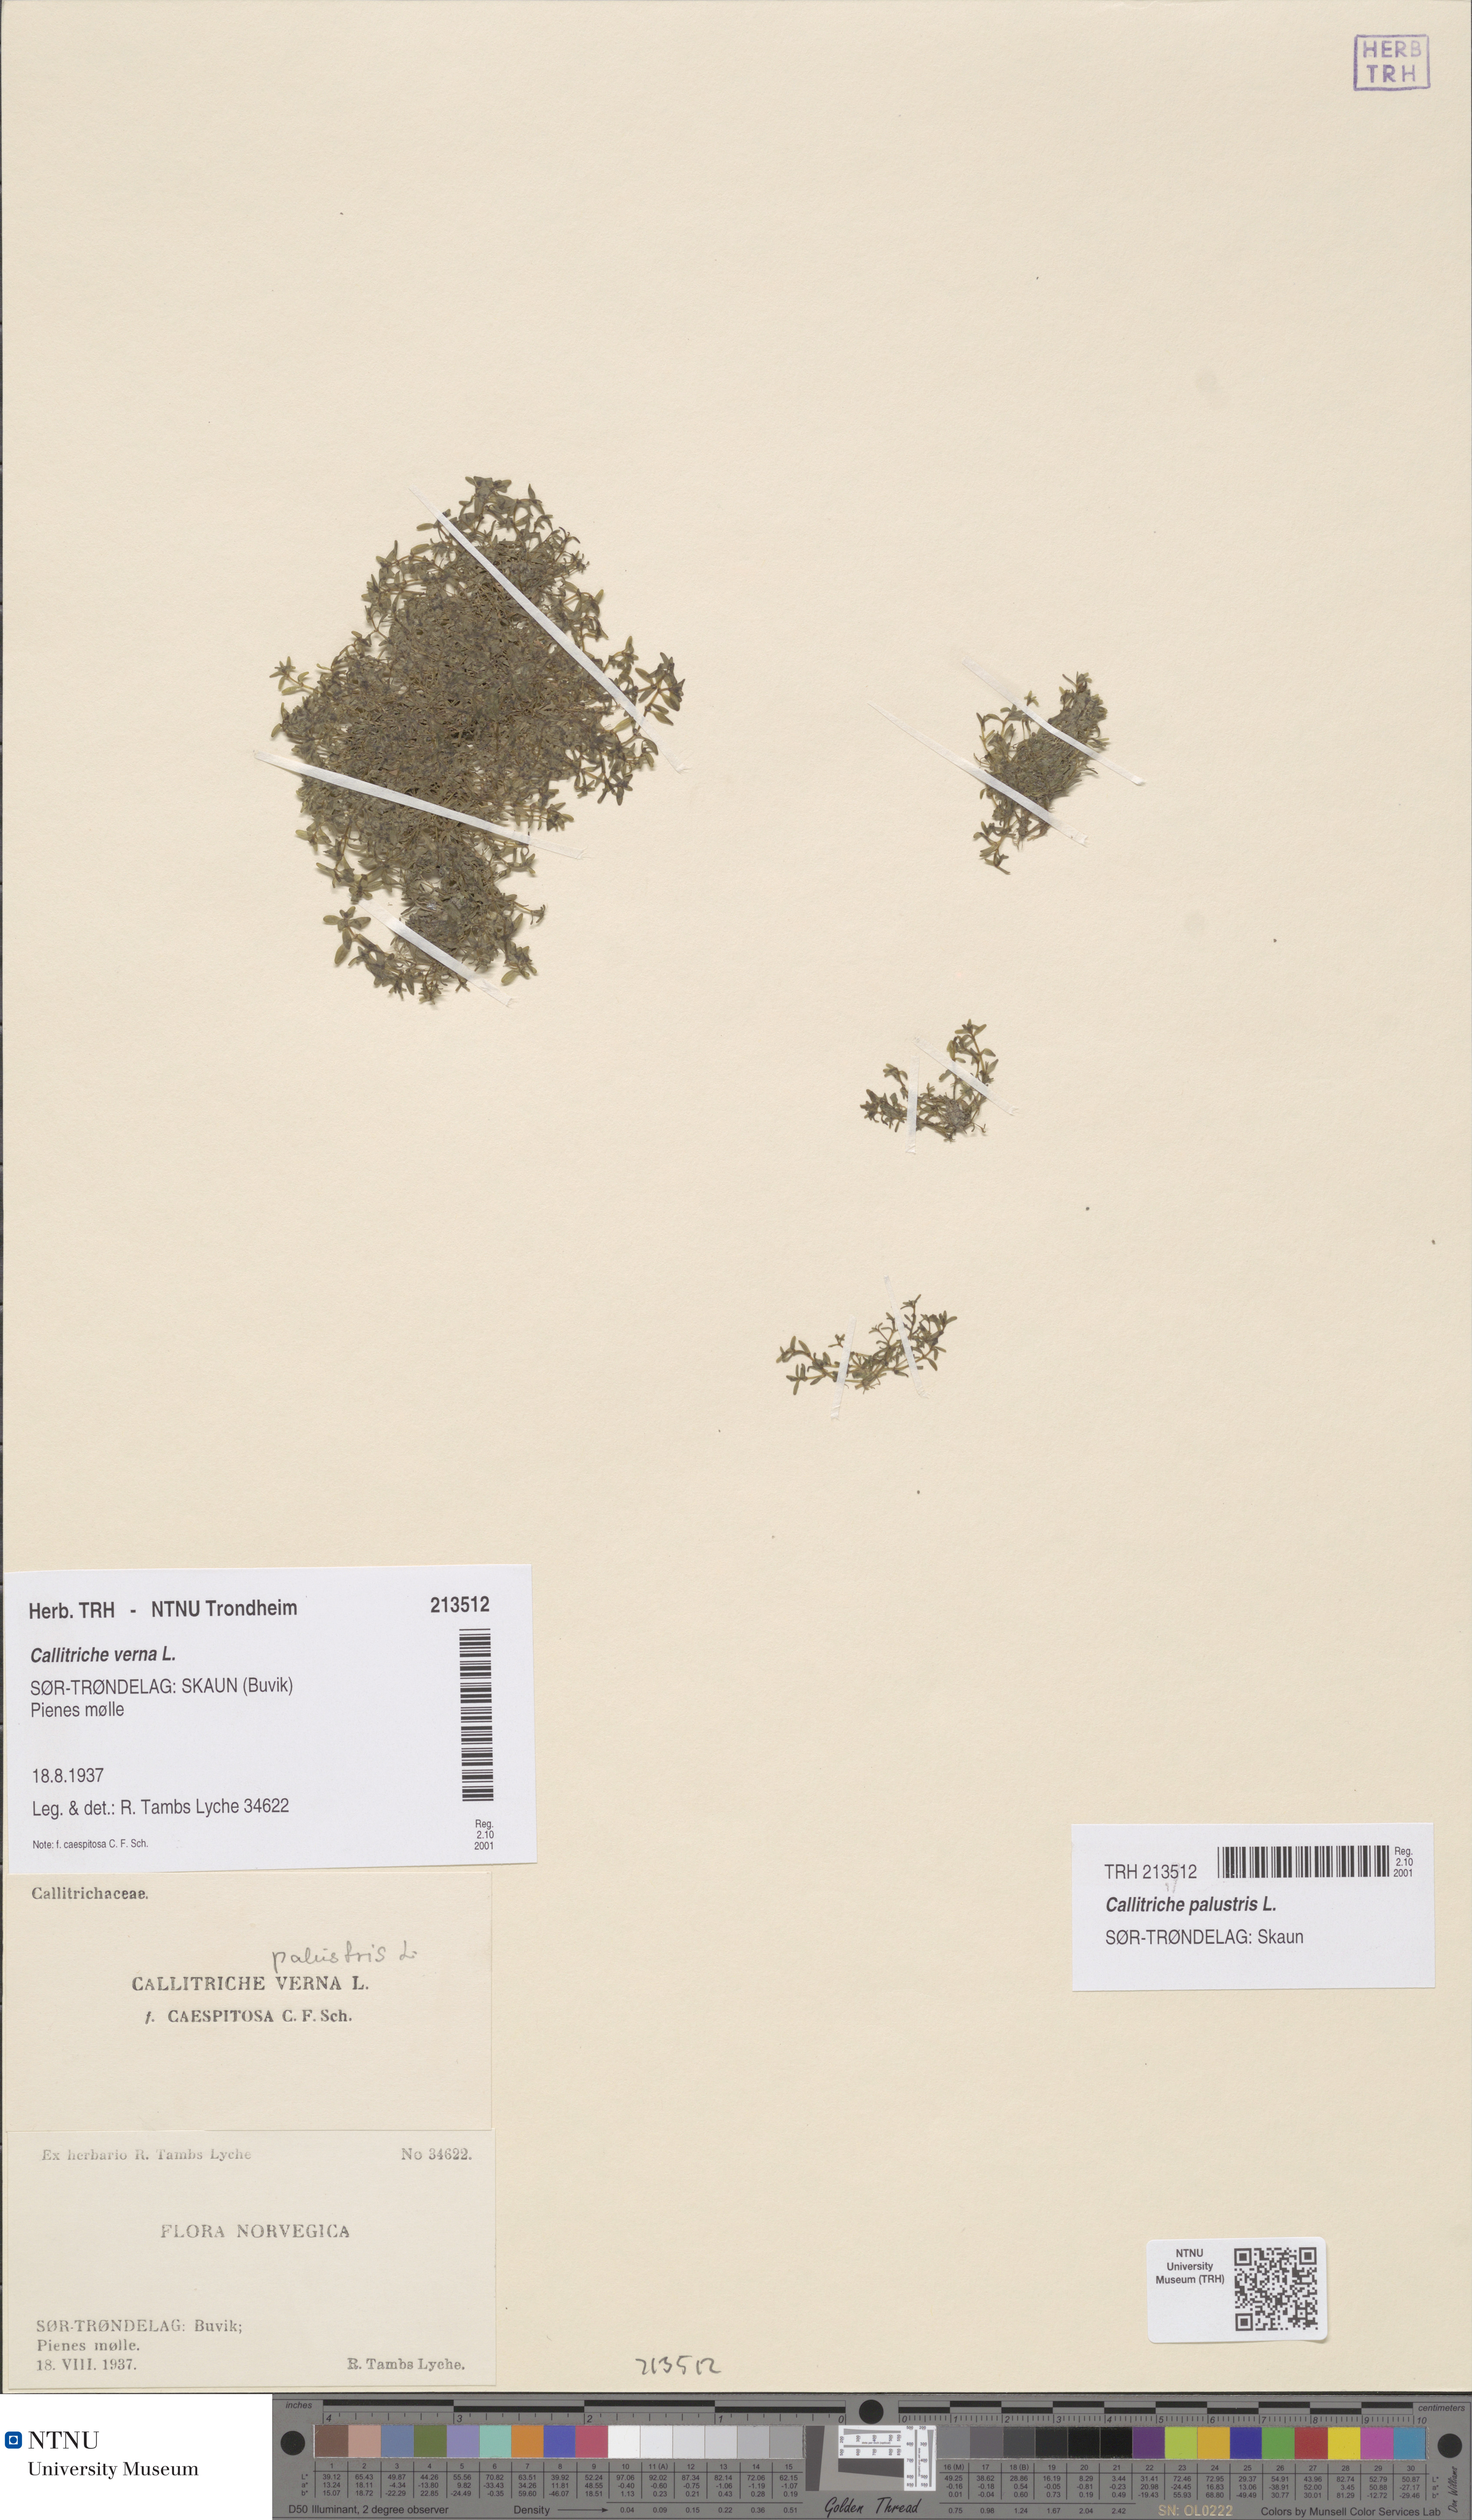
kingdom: Plantae
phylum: Tracheophyta
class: Magnoliopsida
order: Lamiales
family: Plantaginaceae
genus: Callitriche
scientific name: Callitriche palustris
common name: Spring water-starwort
